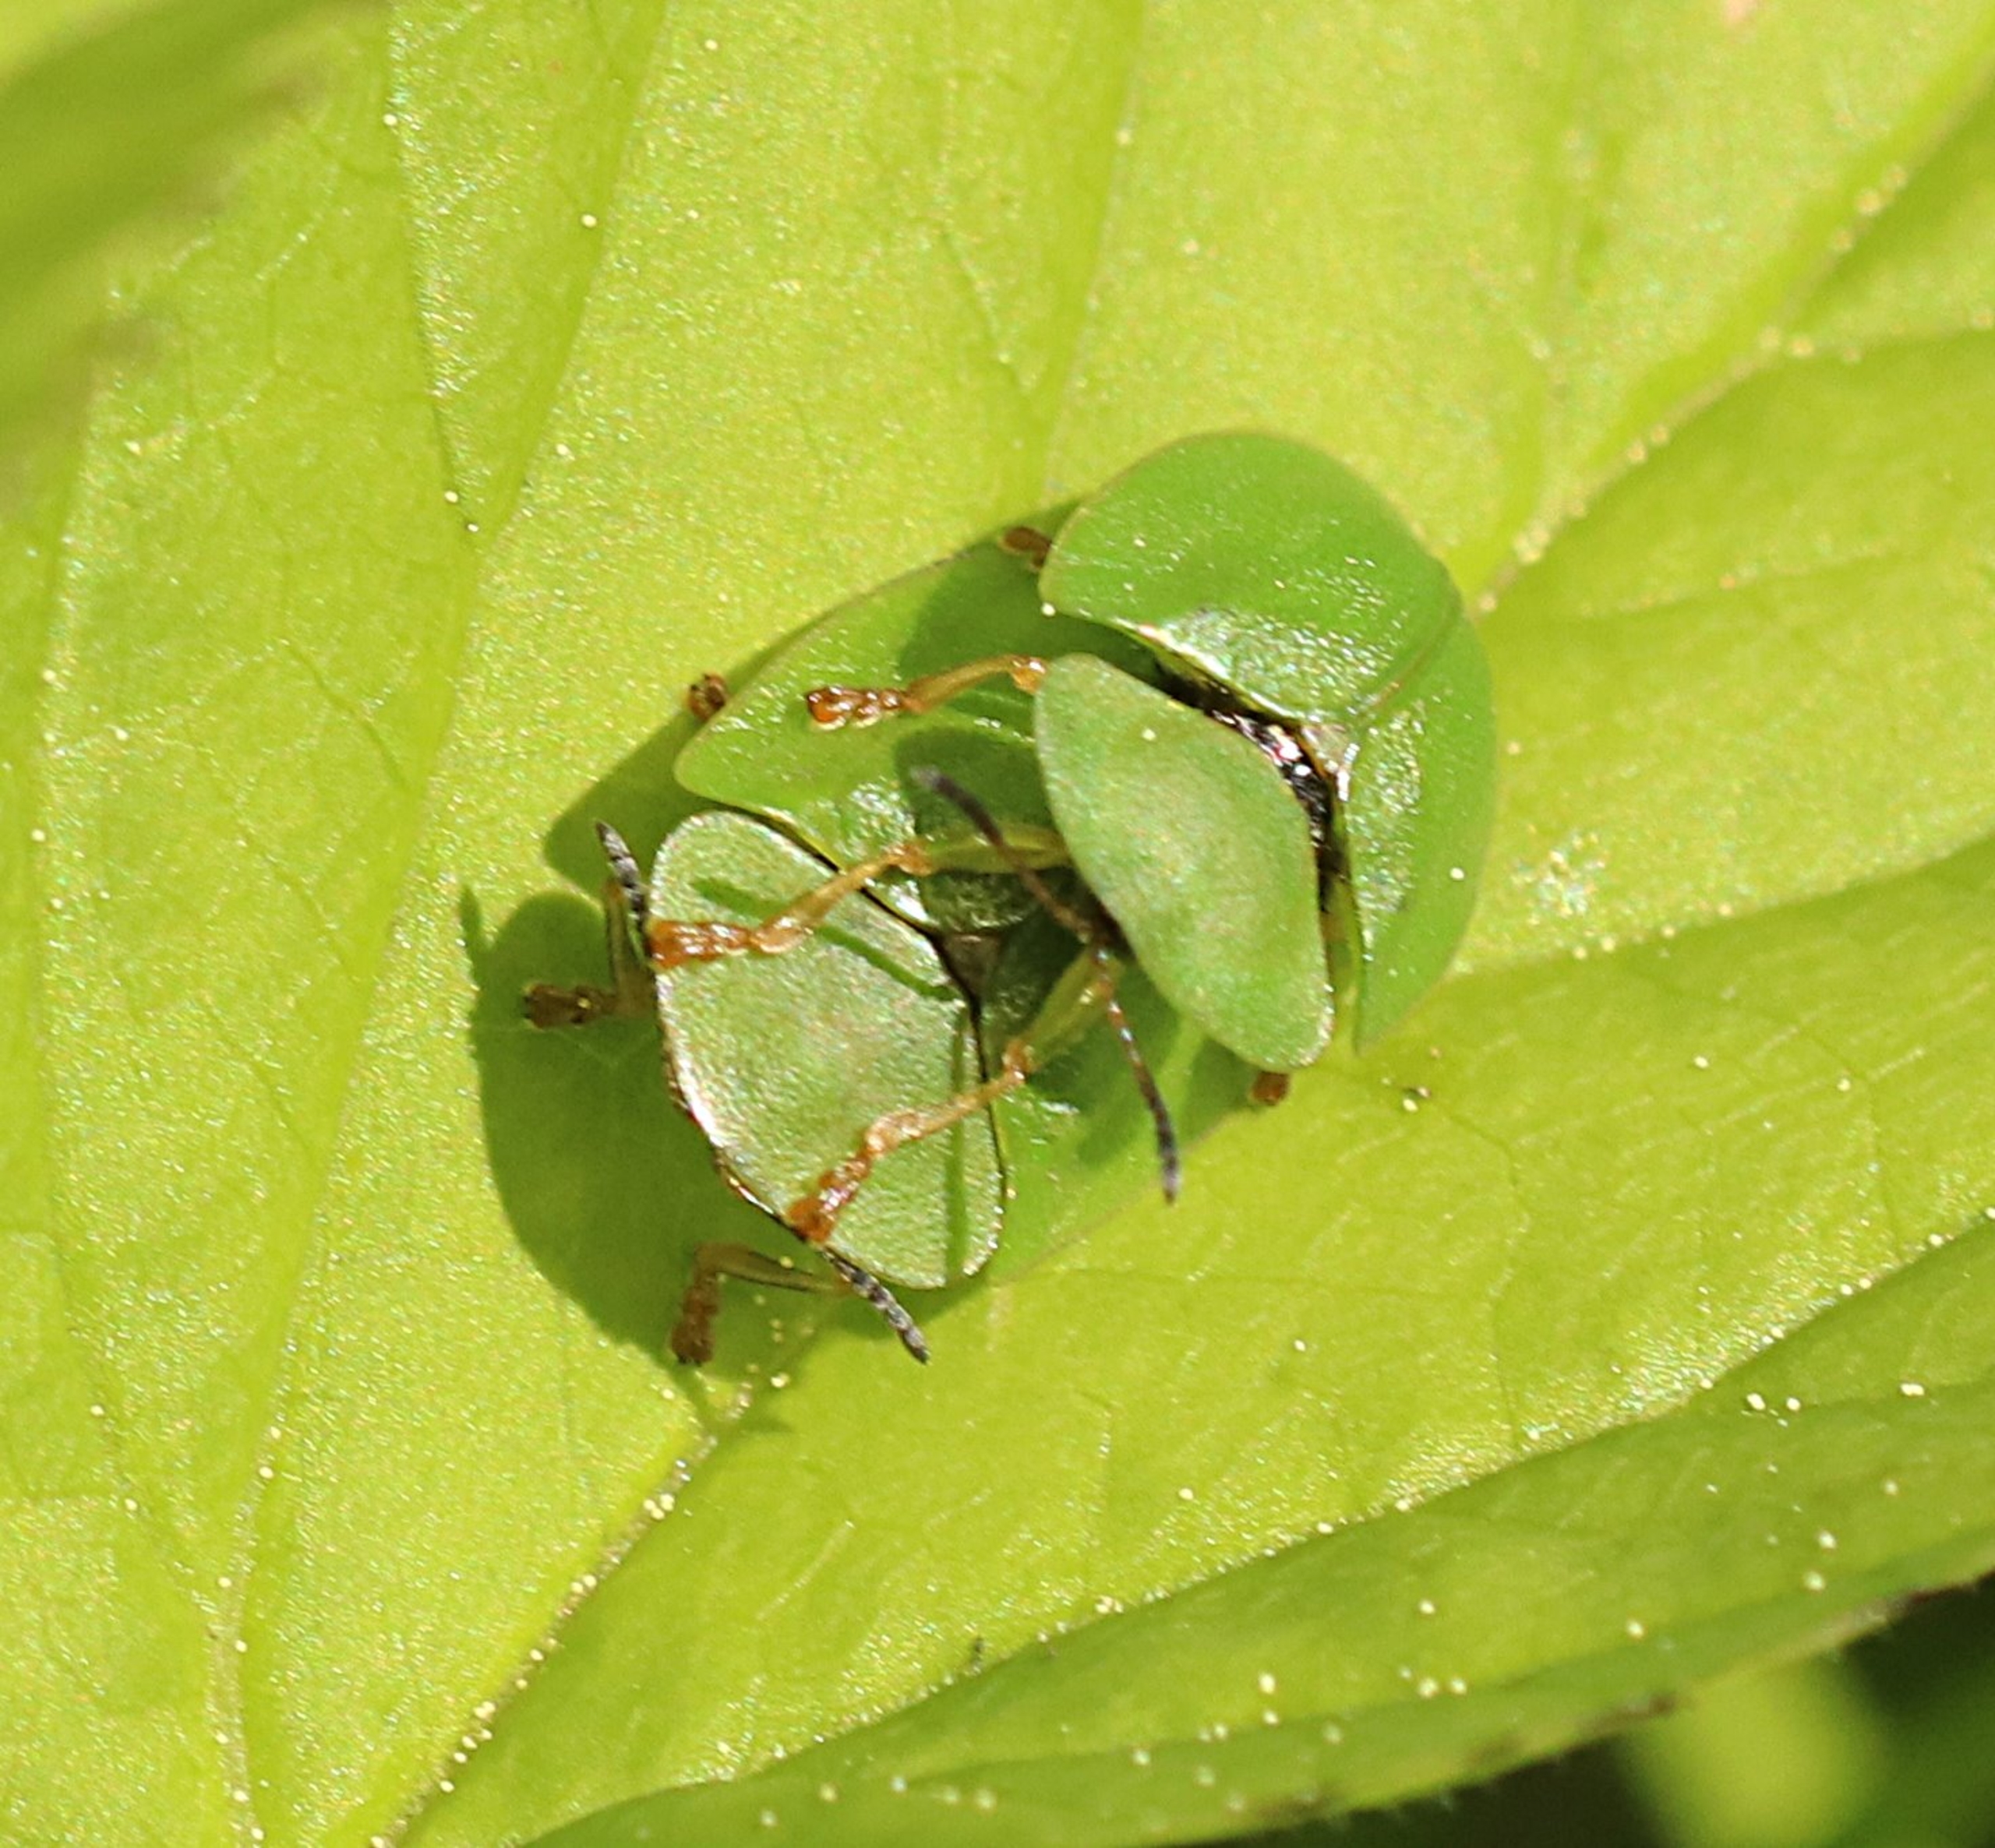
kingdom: Animalia
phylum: Arthropoda
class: Insecta
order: Coleoptera
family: Chrysomelidae
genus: Cassida
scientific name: Cassida viridis
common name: Stor skjoldbille
